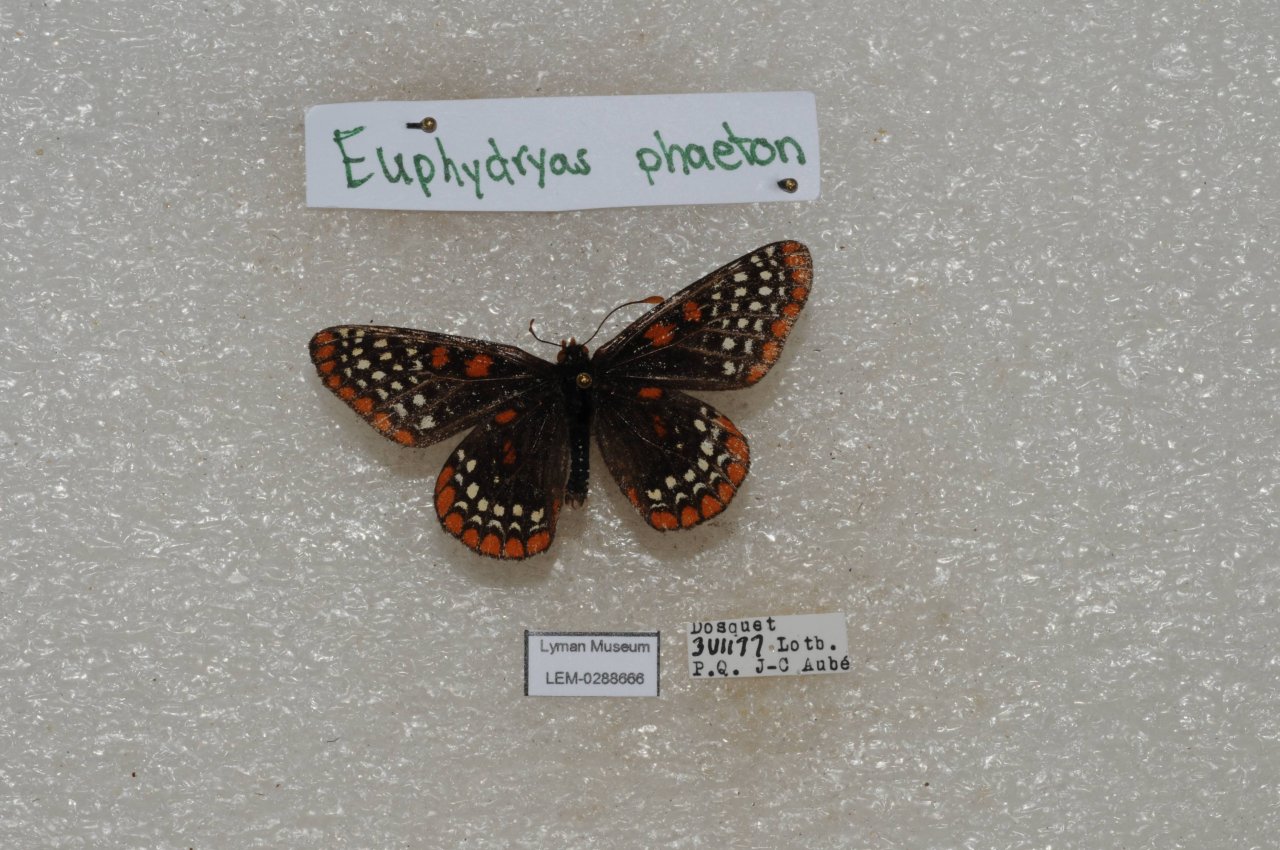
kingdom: Animalia
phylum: Arthropoda
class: Insecta
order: Lepidoptera
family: Nymphalidae
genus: Euphydryas
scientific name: Euphydryas phaeton
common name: Baltimore Checkerspot
